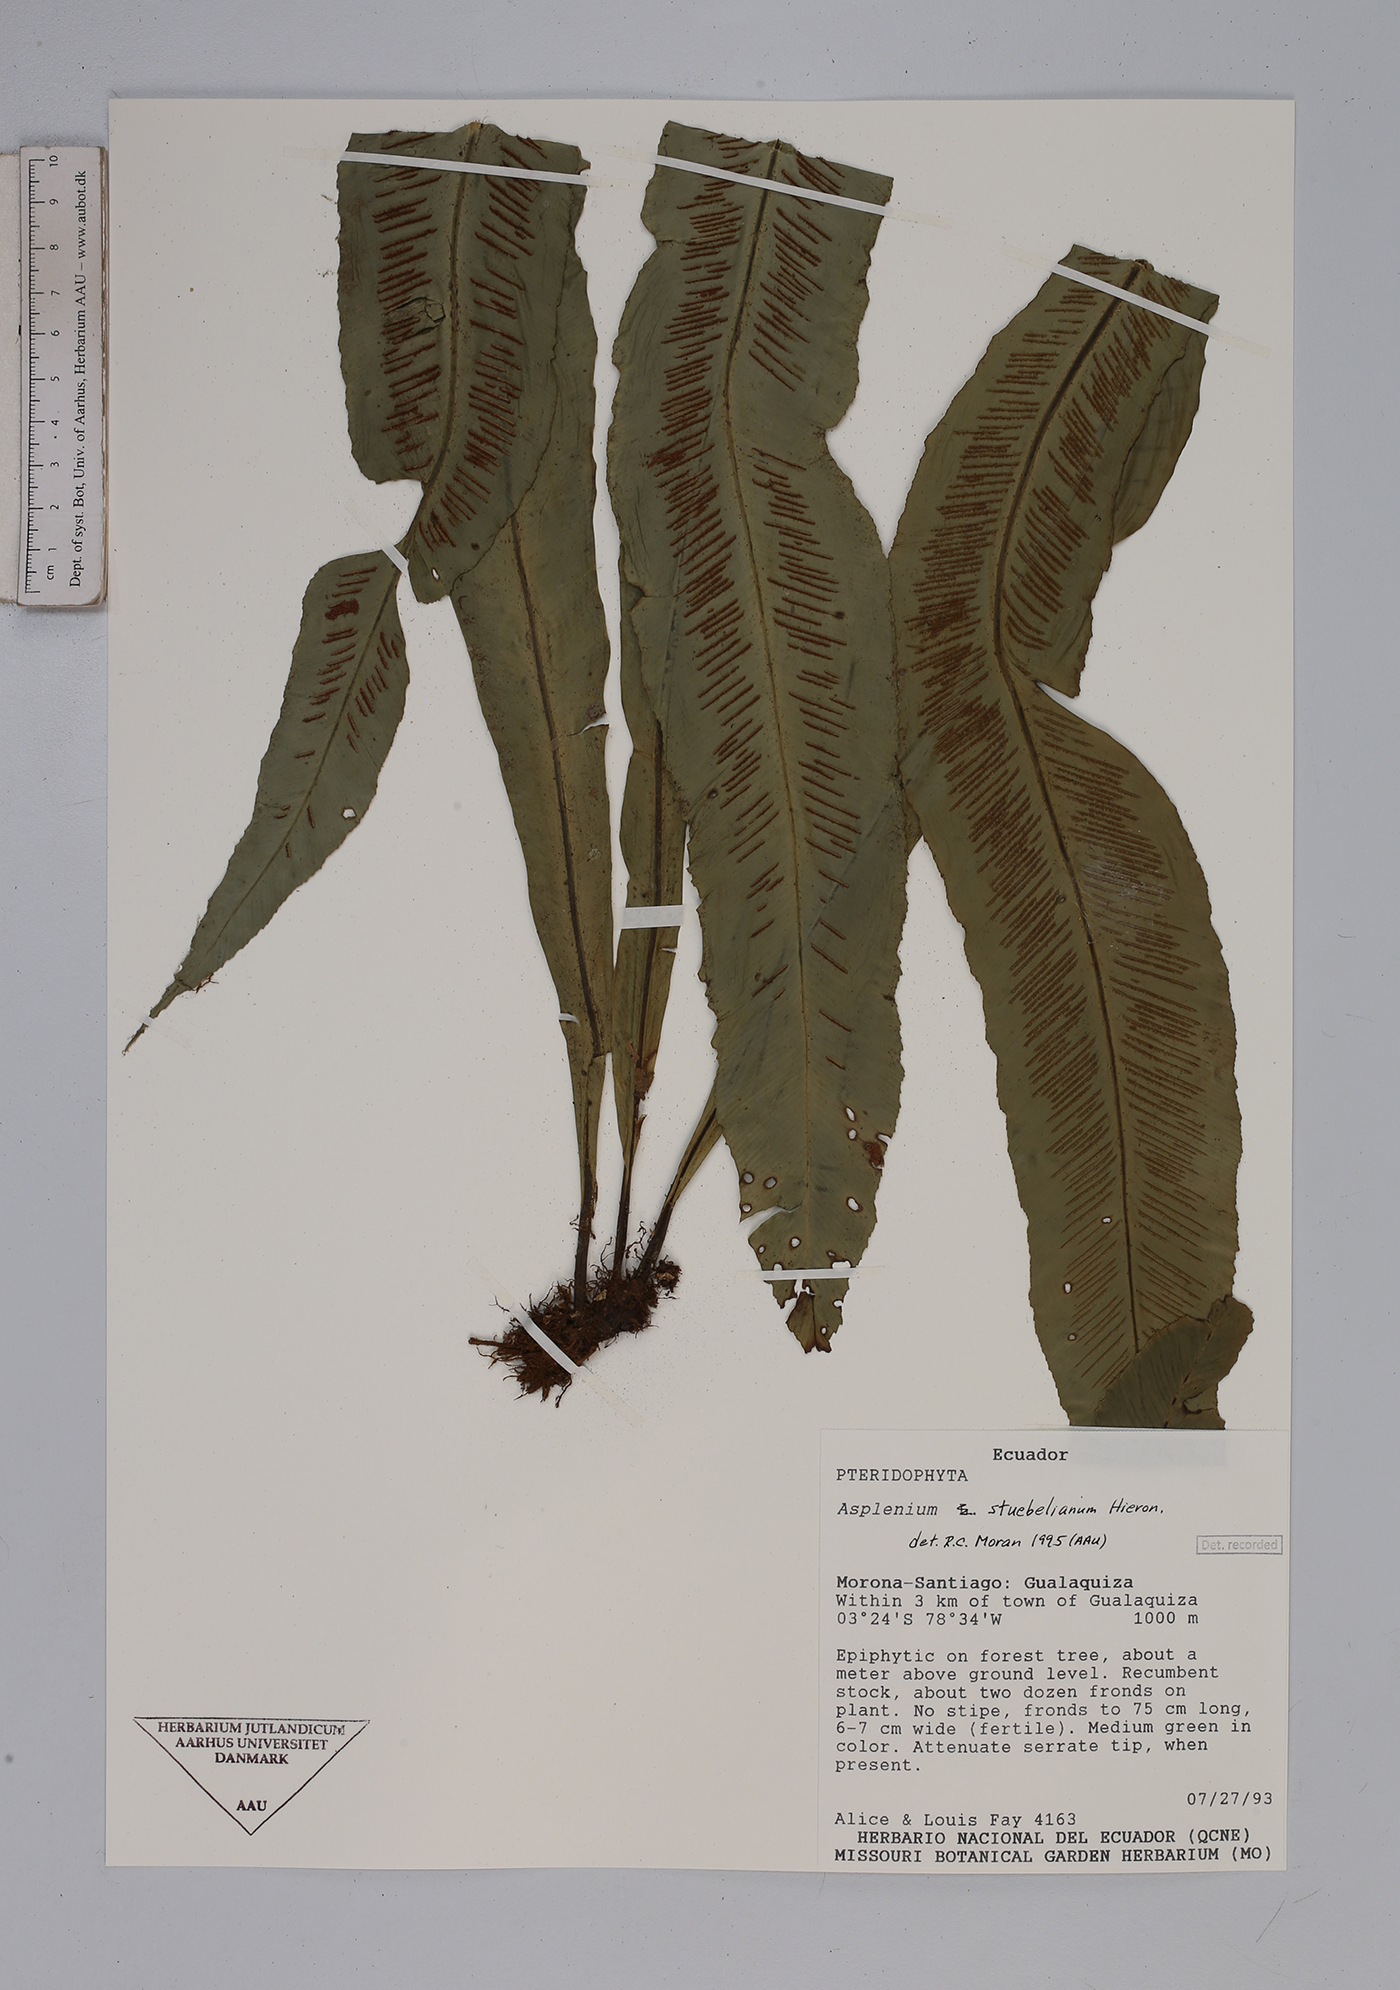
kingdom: Plantae
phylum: Tracheophyta
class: Polypodiopsida
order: Polypodiales
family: Aspleniaceae
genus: Asplenium
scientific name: Asplenium stuebelianum
